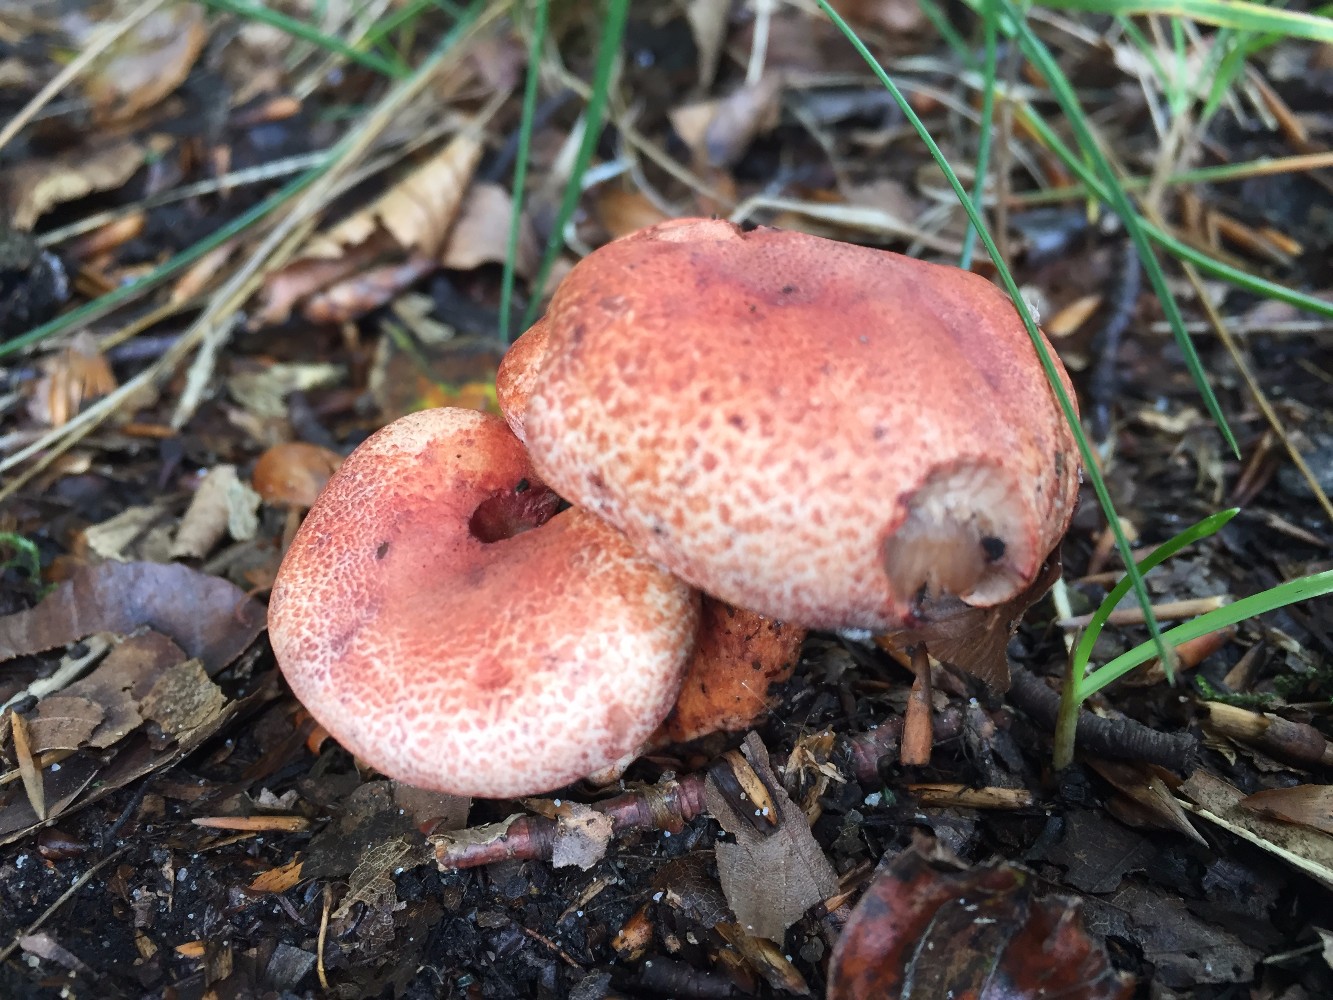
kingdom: Fungi
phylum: Basidiomycota
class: Agaricomycetes
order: Agaricales
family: Cortinariaceae
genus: Cortinarius
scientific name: Cortinarius bolaris
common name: cinnoberskællet slørhat
